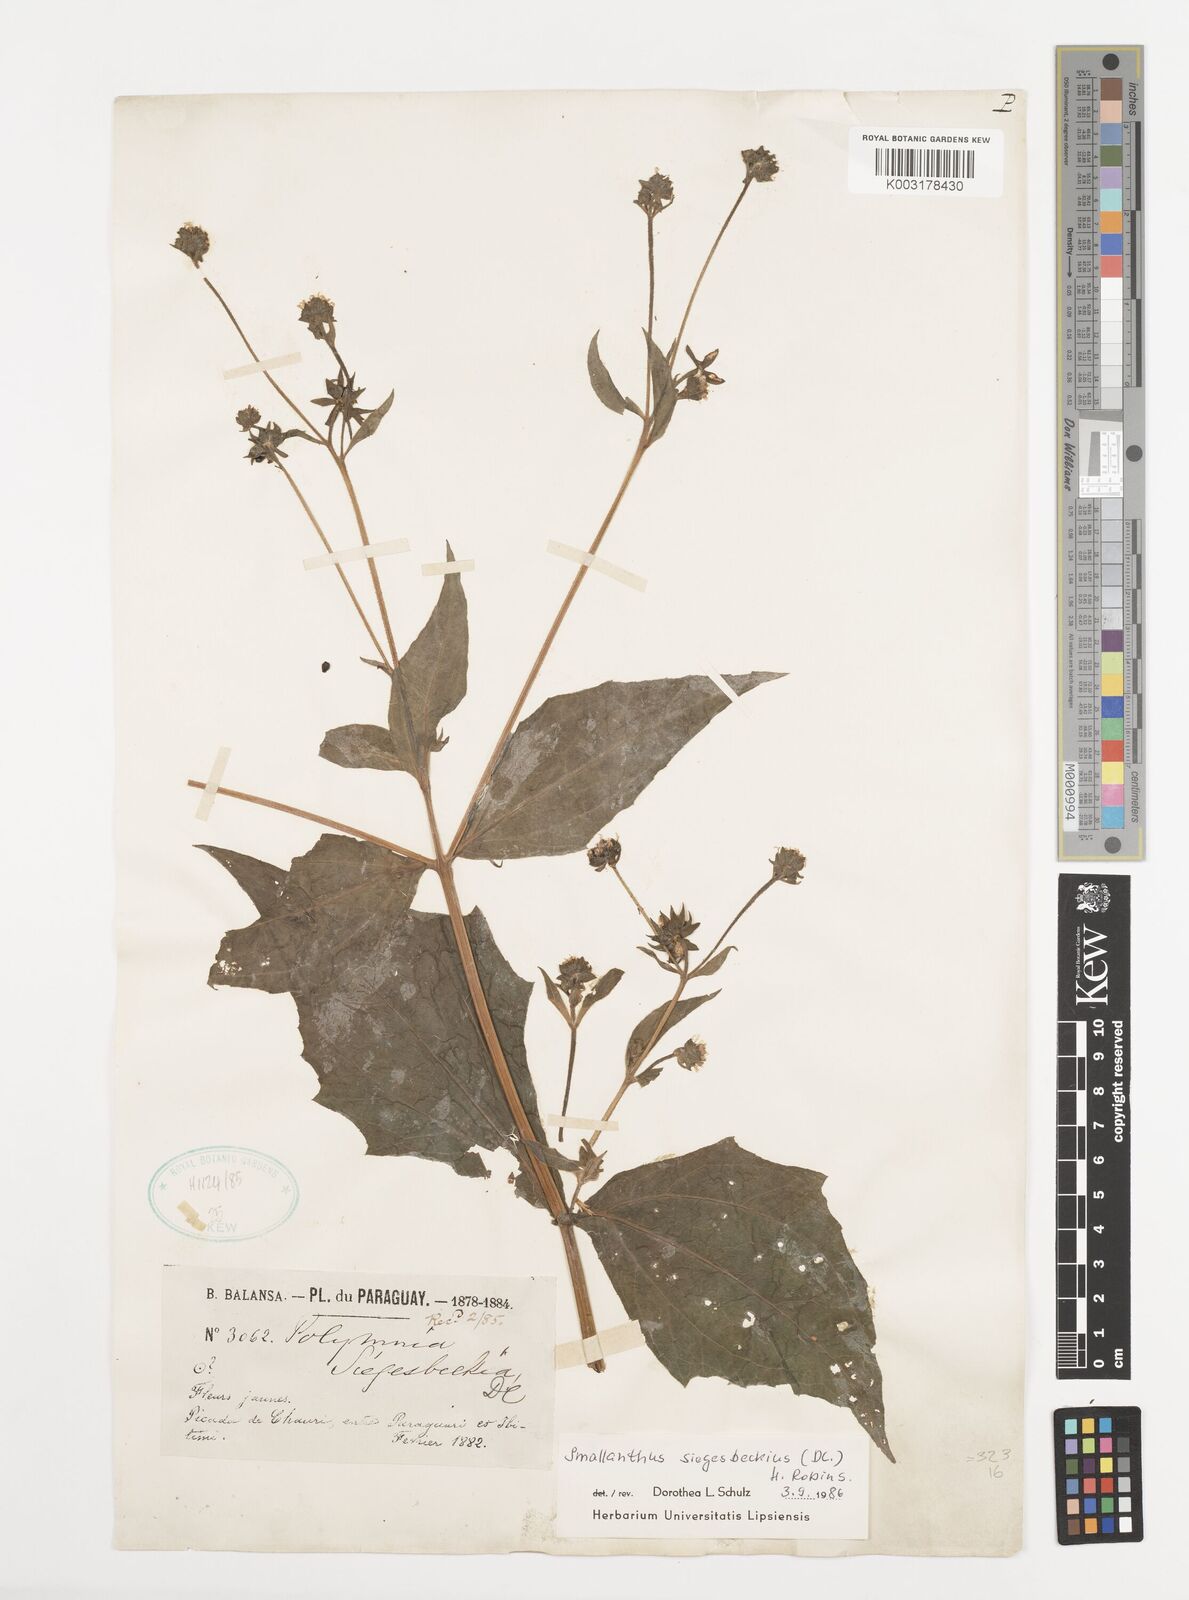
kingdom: Plantae
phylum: Tracheophyta
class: Magnoliopsida
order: Asterales
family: Asteraceae
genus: Smallanthus
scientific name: Smallanthus siegesbeckius
